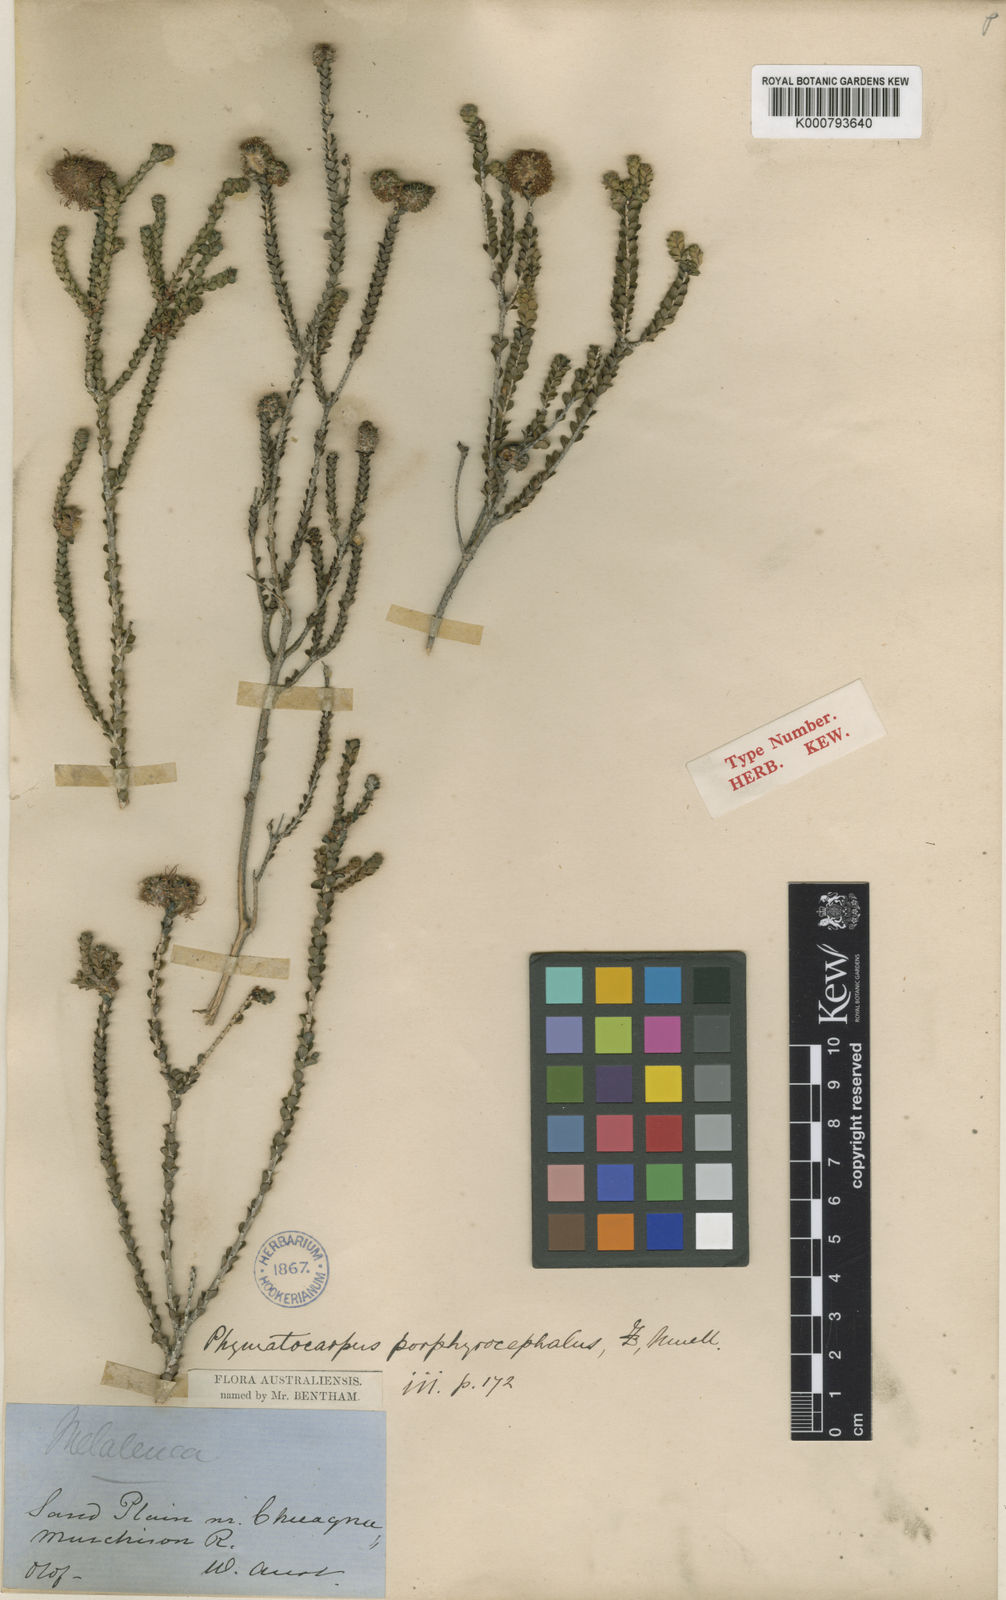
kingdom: Plantae
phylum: Tracheophyta
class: Magnoliopsida
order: Myrtales
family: Myrtaceae
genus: Melaleuca
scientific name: Melaleuca porphyrocephala
